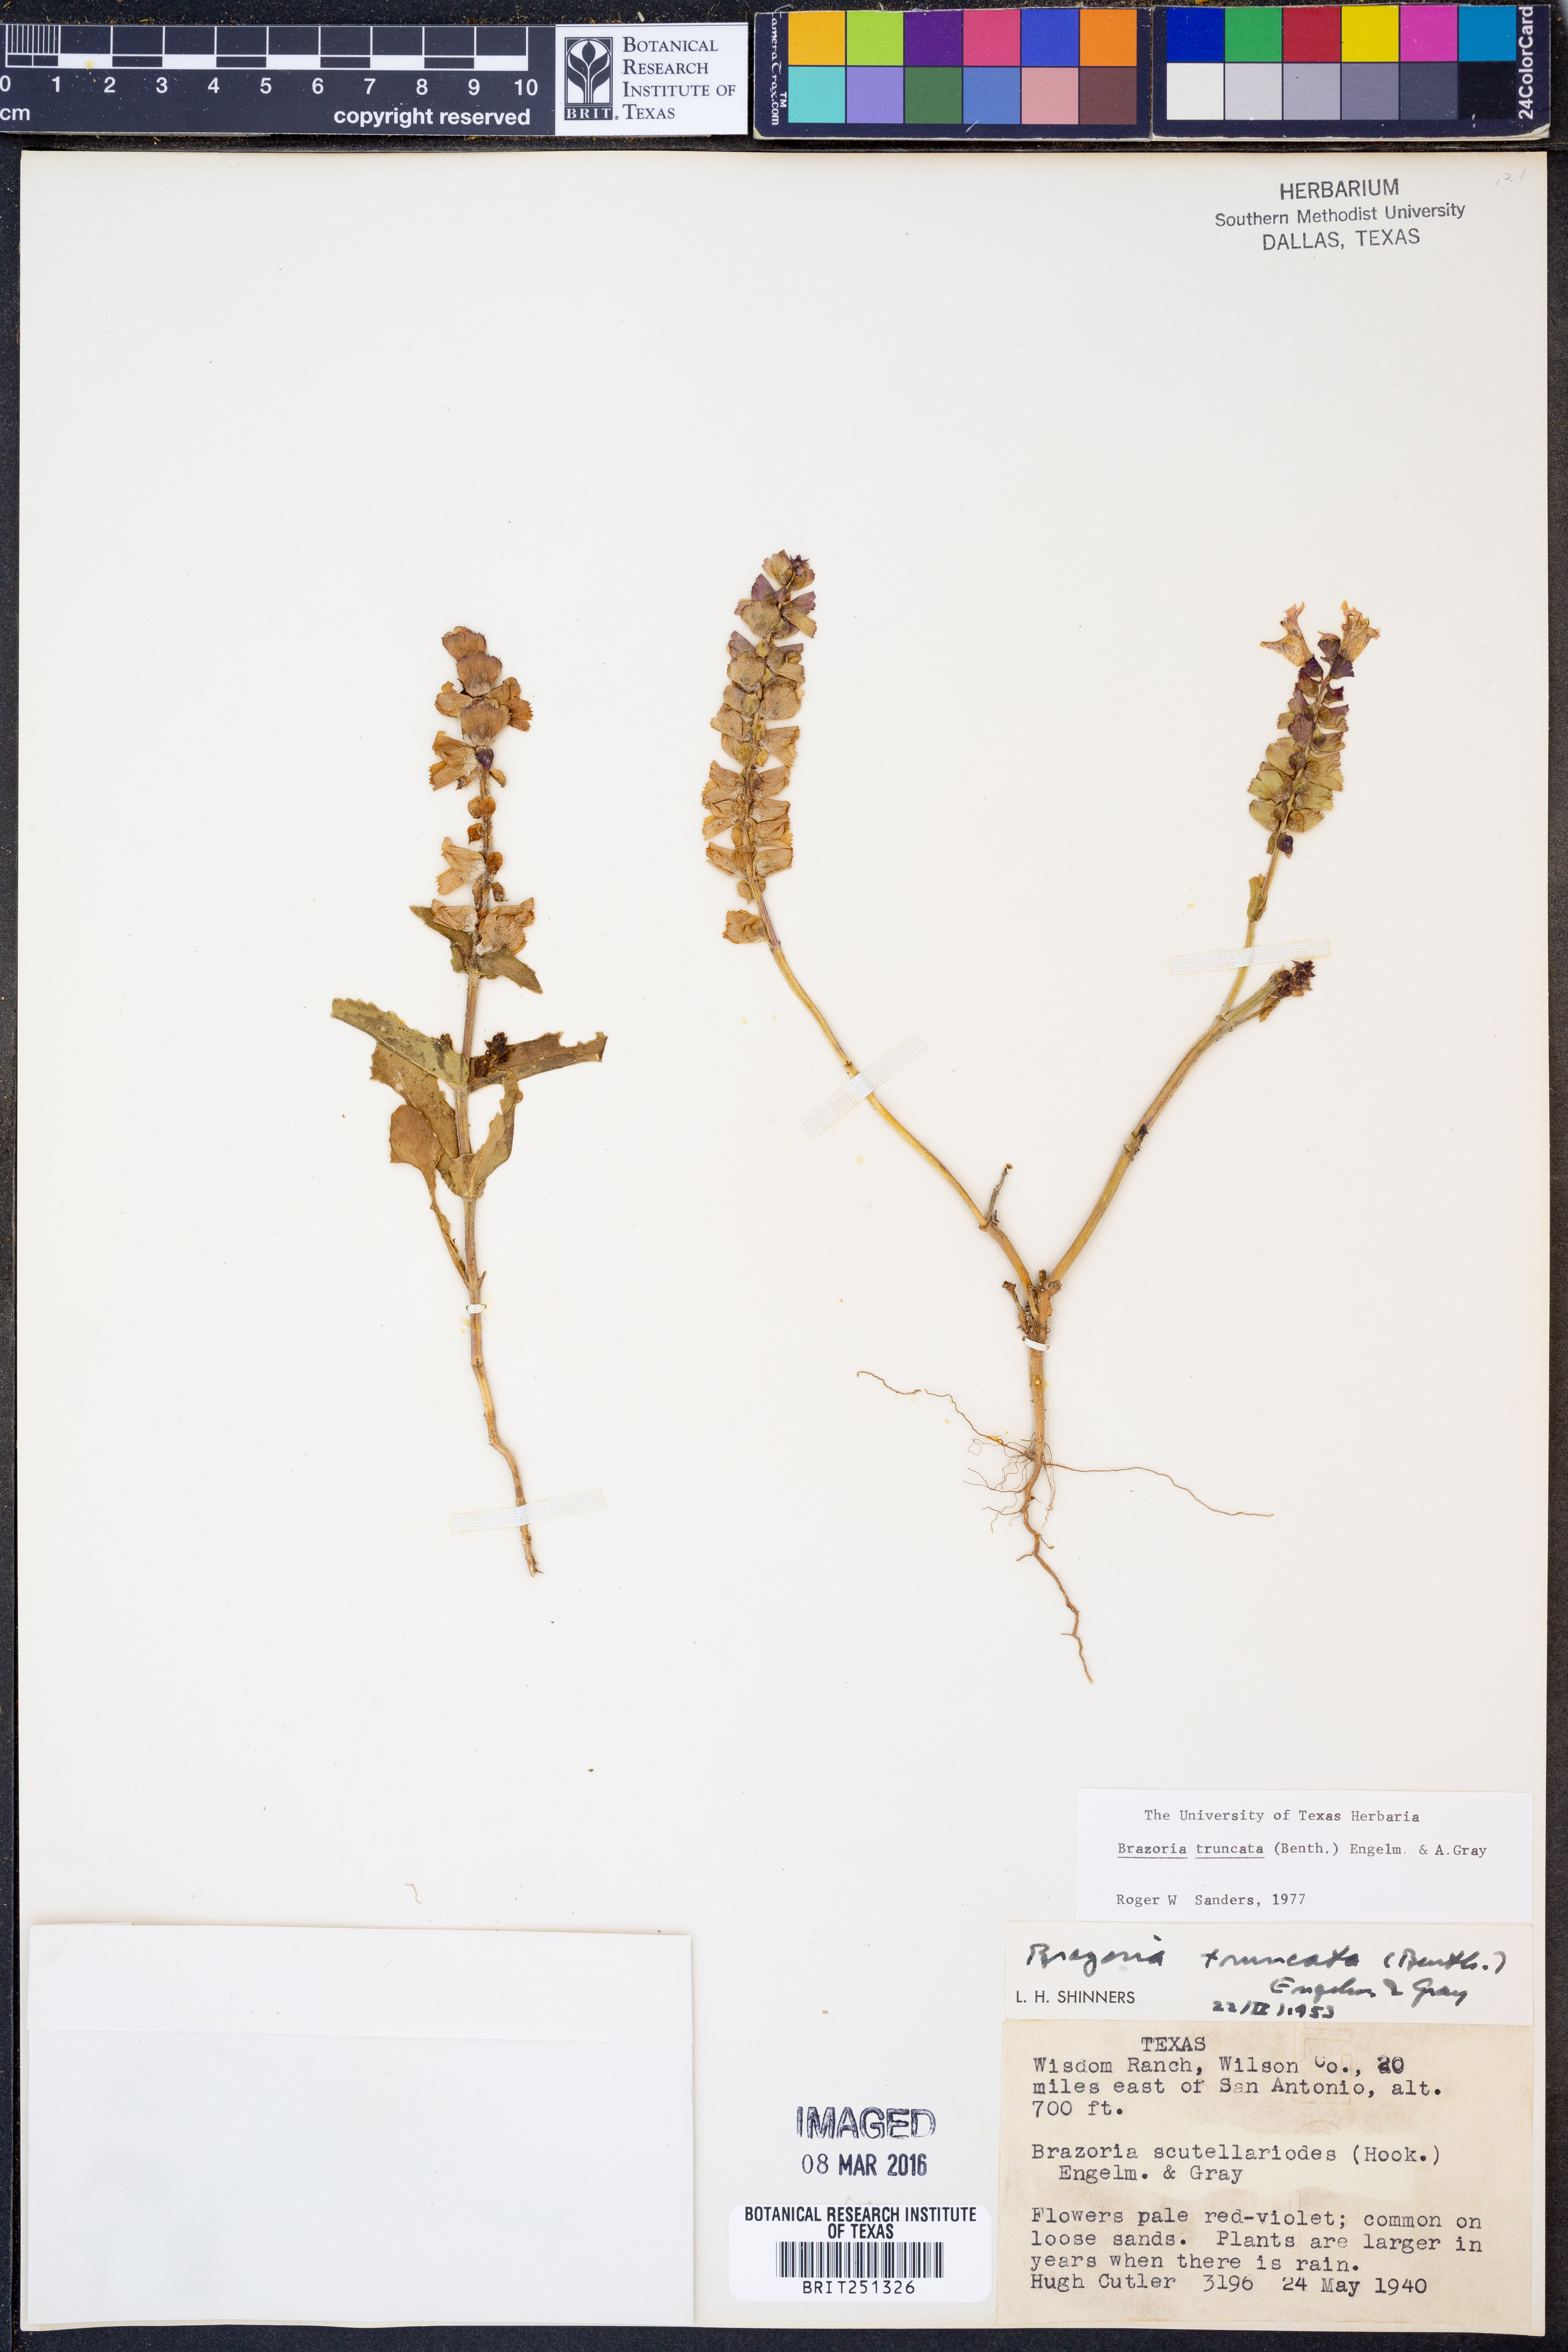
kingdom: Plantae
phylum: Tracheophyta
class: Magnoliopsida
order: Lamiales
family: Lamiaceae
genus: Brazoria
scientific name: Brazoria truncata
